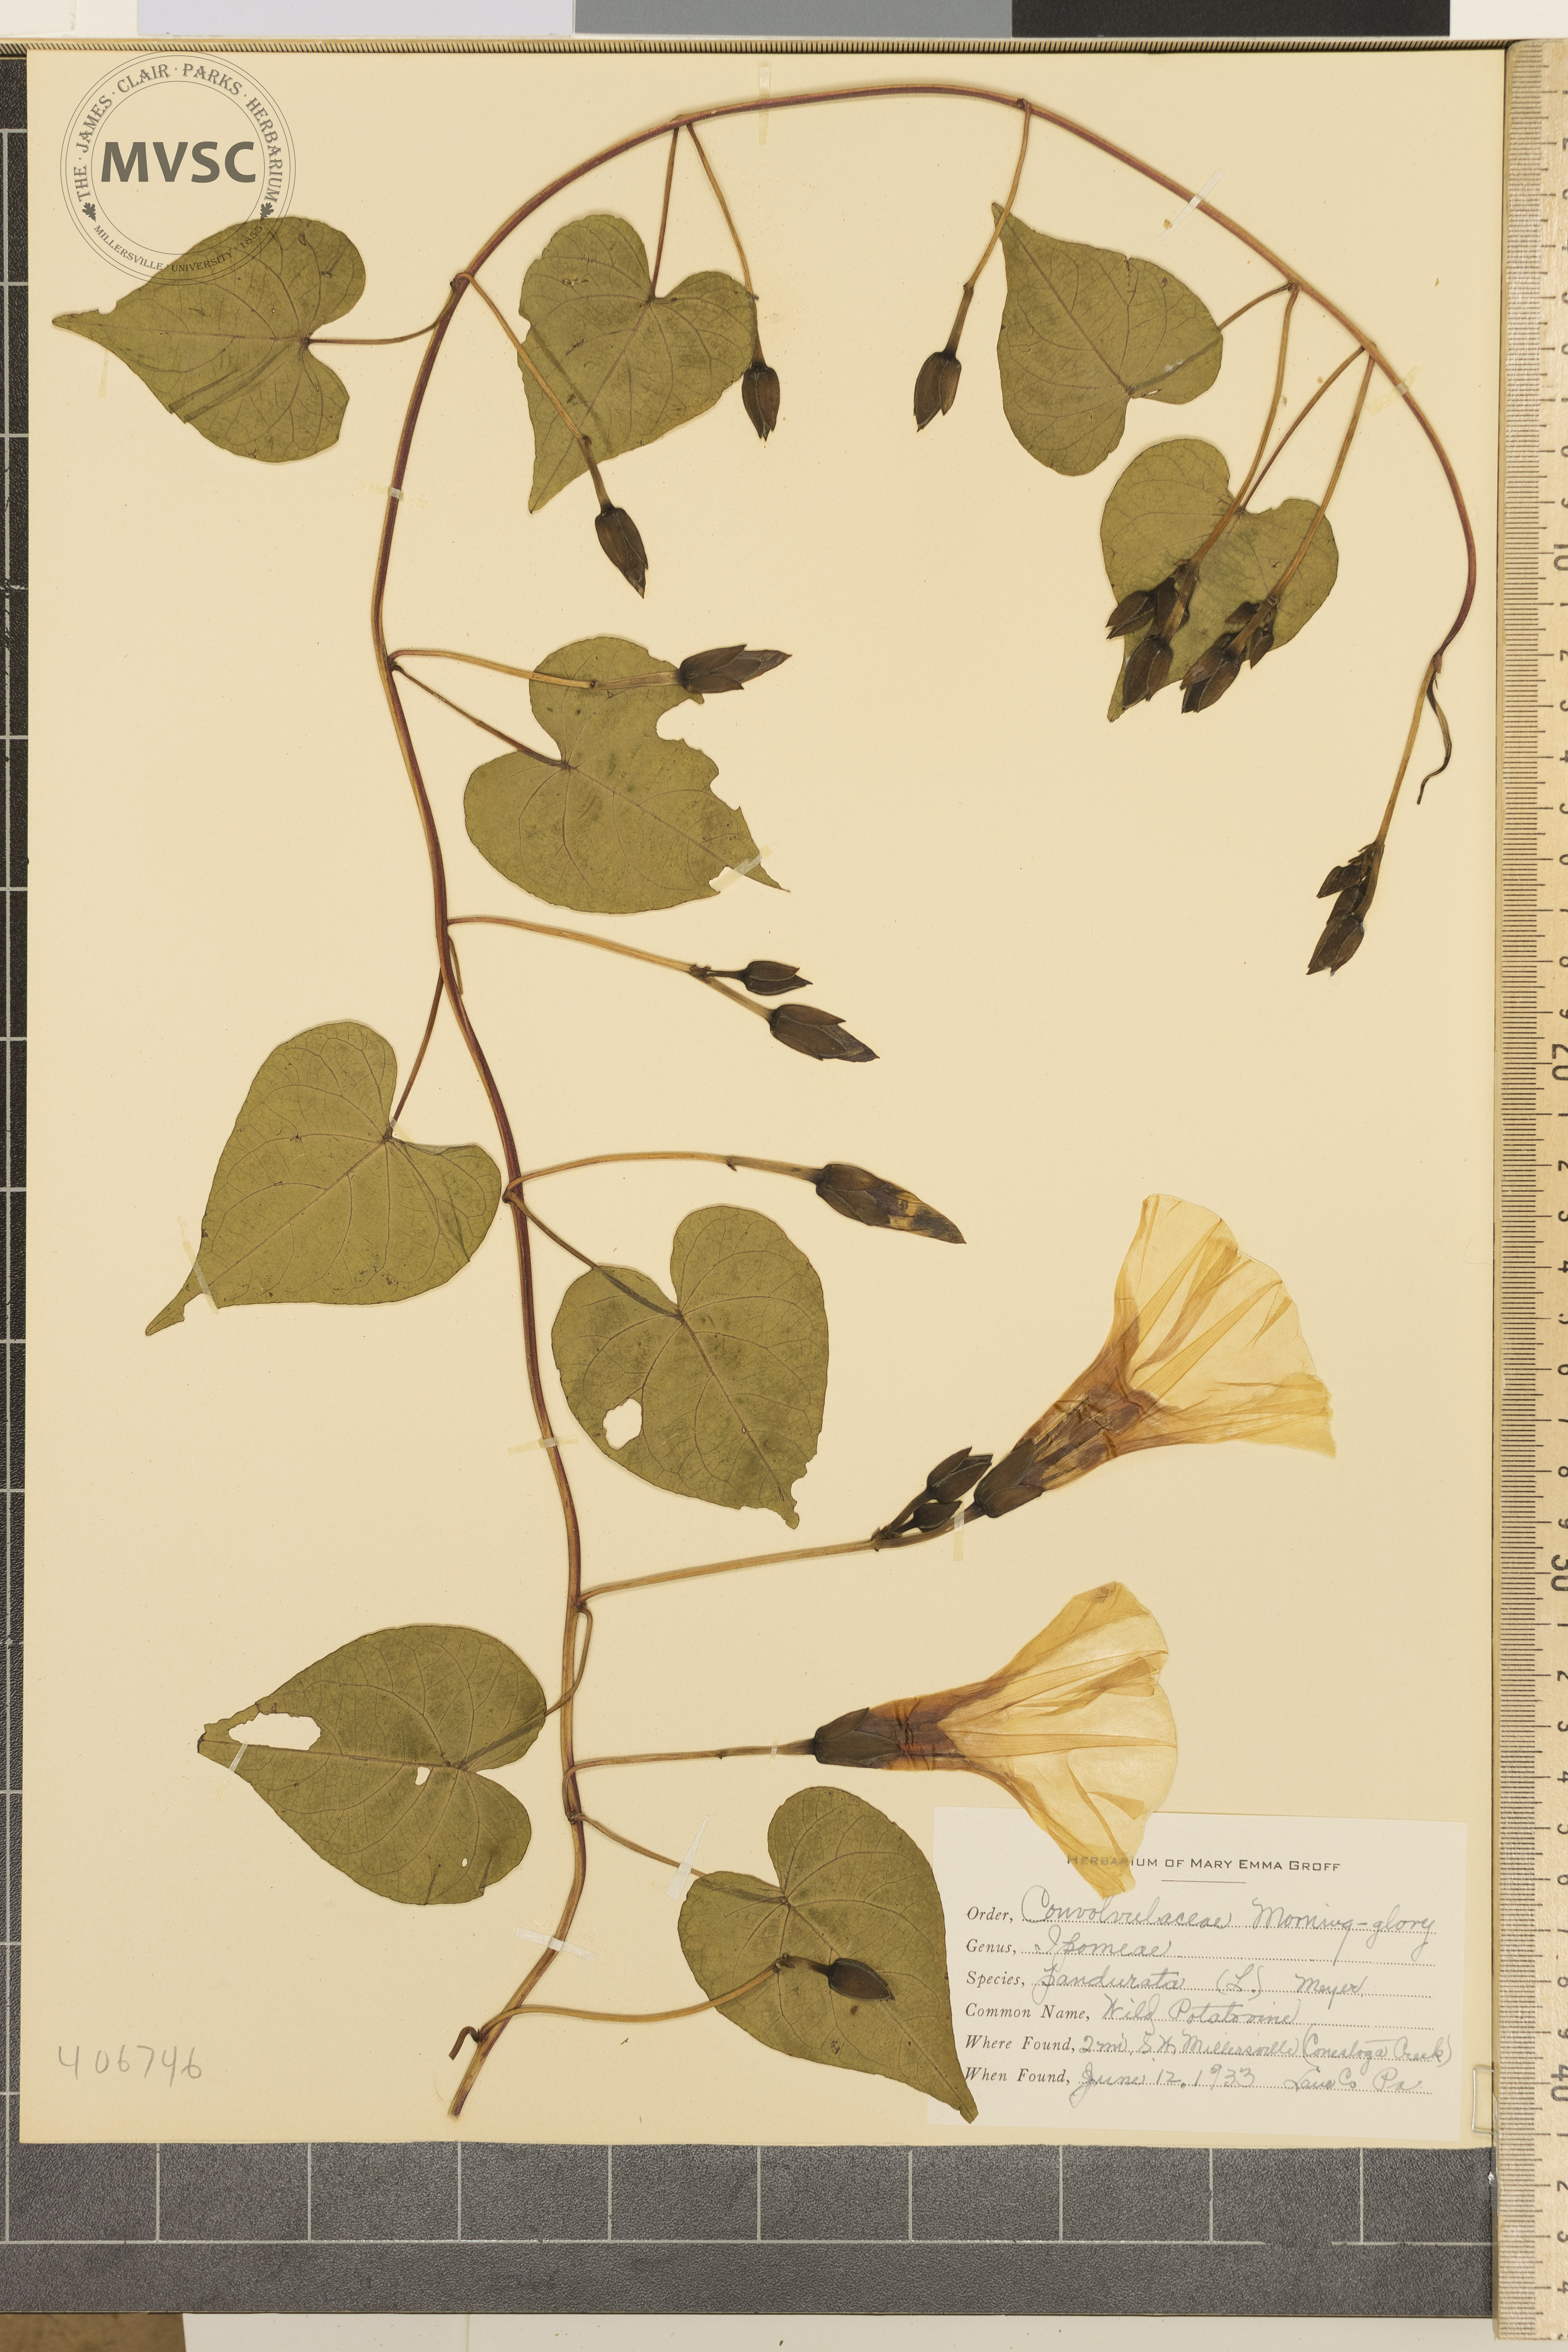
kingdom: Plantae
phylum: Tracheophyta
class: Magnoliopsida
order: Solanales
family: Convolvulaceae
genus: Ipomoea
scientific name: Ipomoea pandurata
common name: wild potato vine
